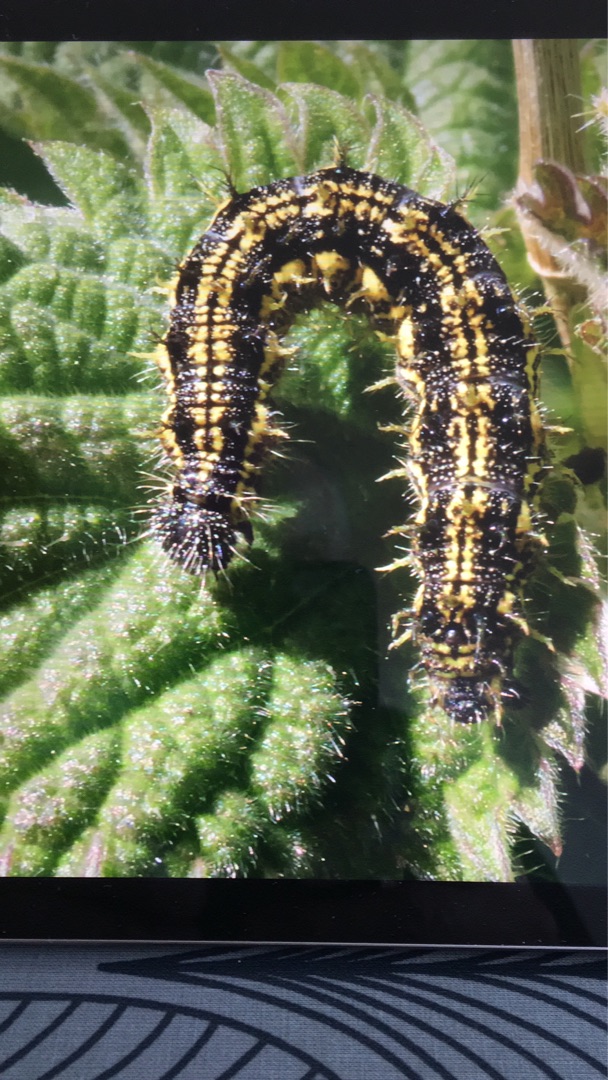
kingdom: Animalia
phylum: Arthropoda
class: Insecta
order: Lepidoptera
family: Nymphalidae
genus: Aglais
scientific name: Aglais urticae
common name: Nældens takvinge
